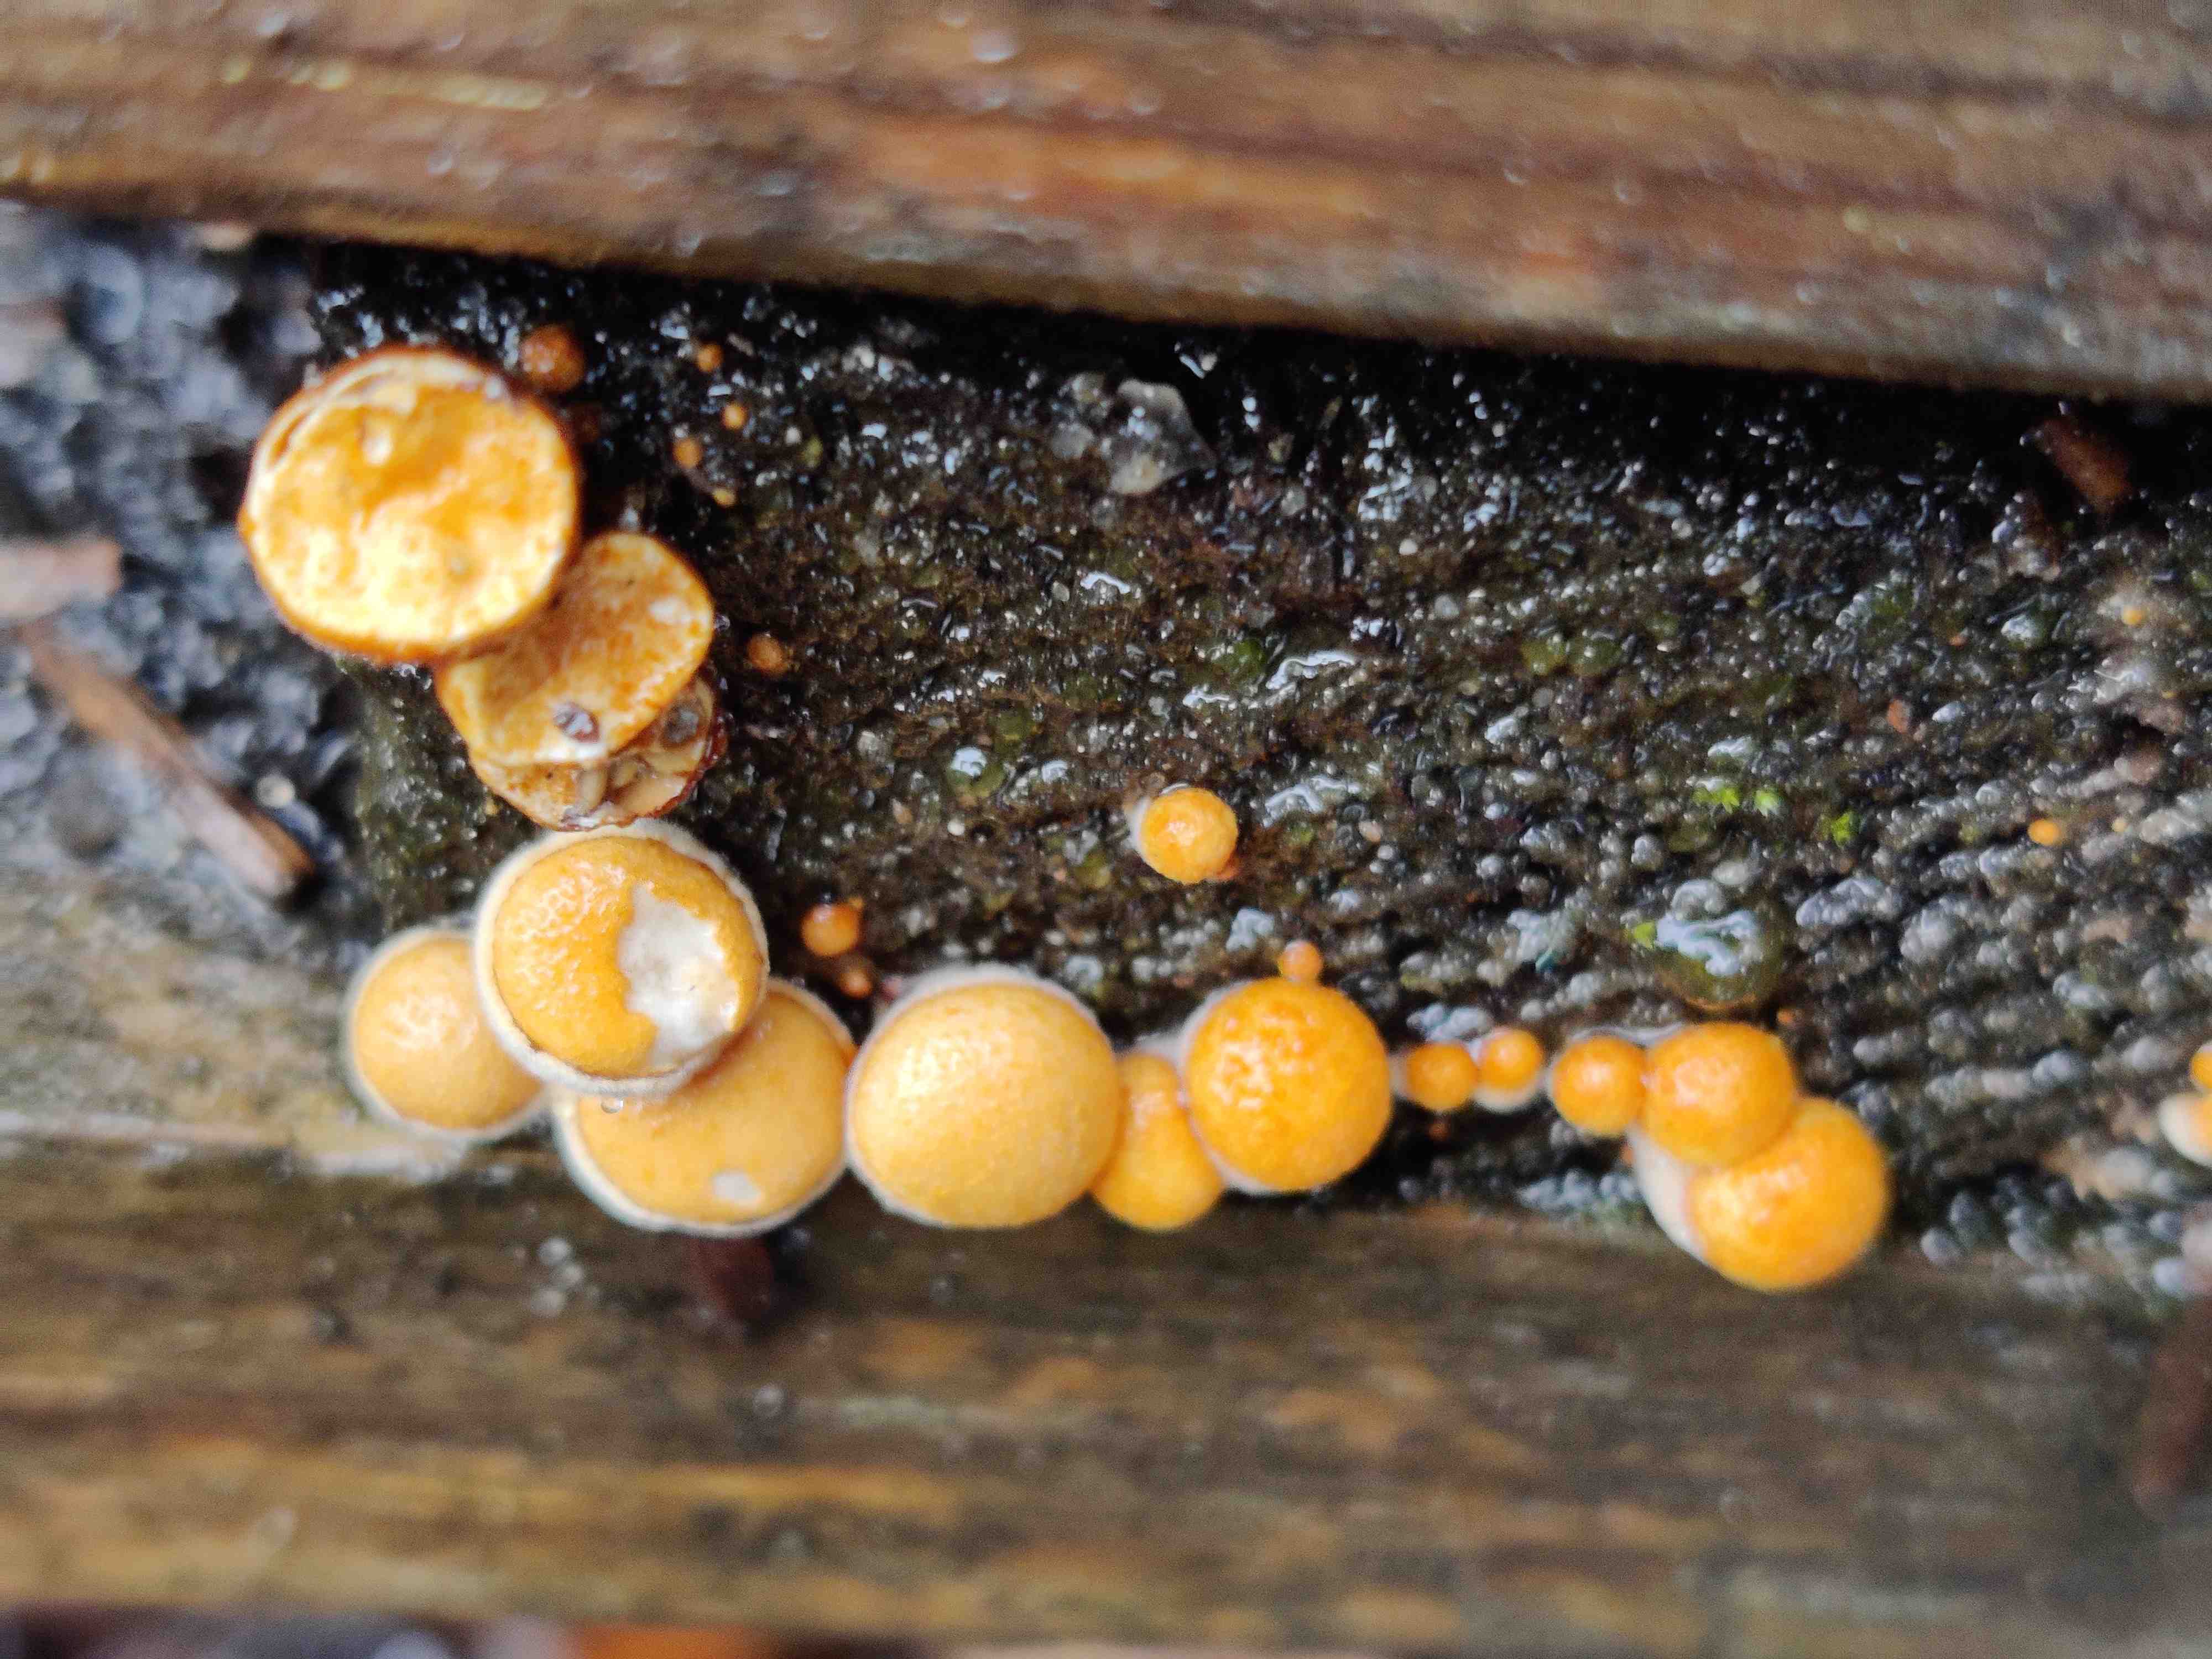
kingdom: Fungi
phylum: Basidiomycota
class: Agaricomycetes
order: Agaricales
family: Nidulariaceae
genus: Crucibulum
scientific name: Crucibulum crucibuliforme
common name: krukkesvamp
